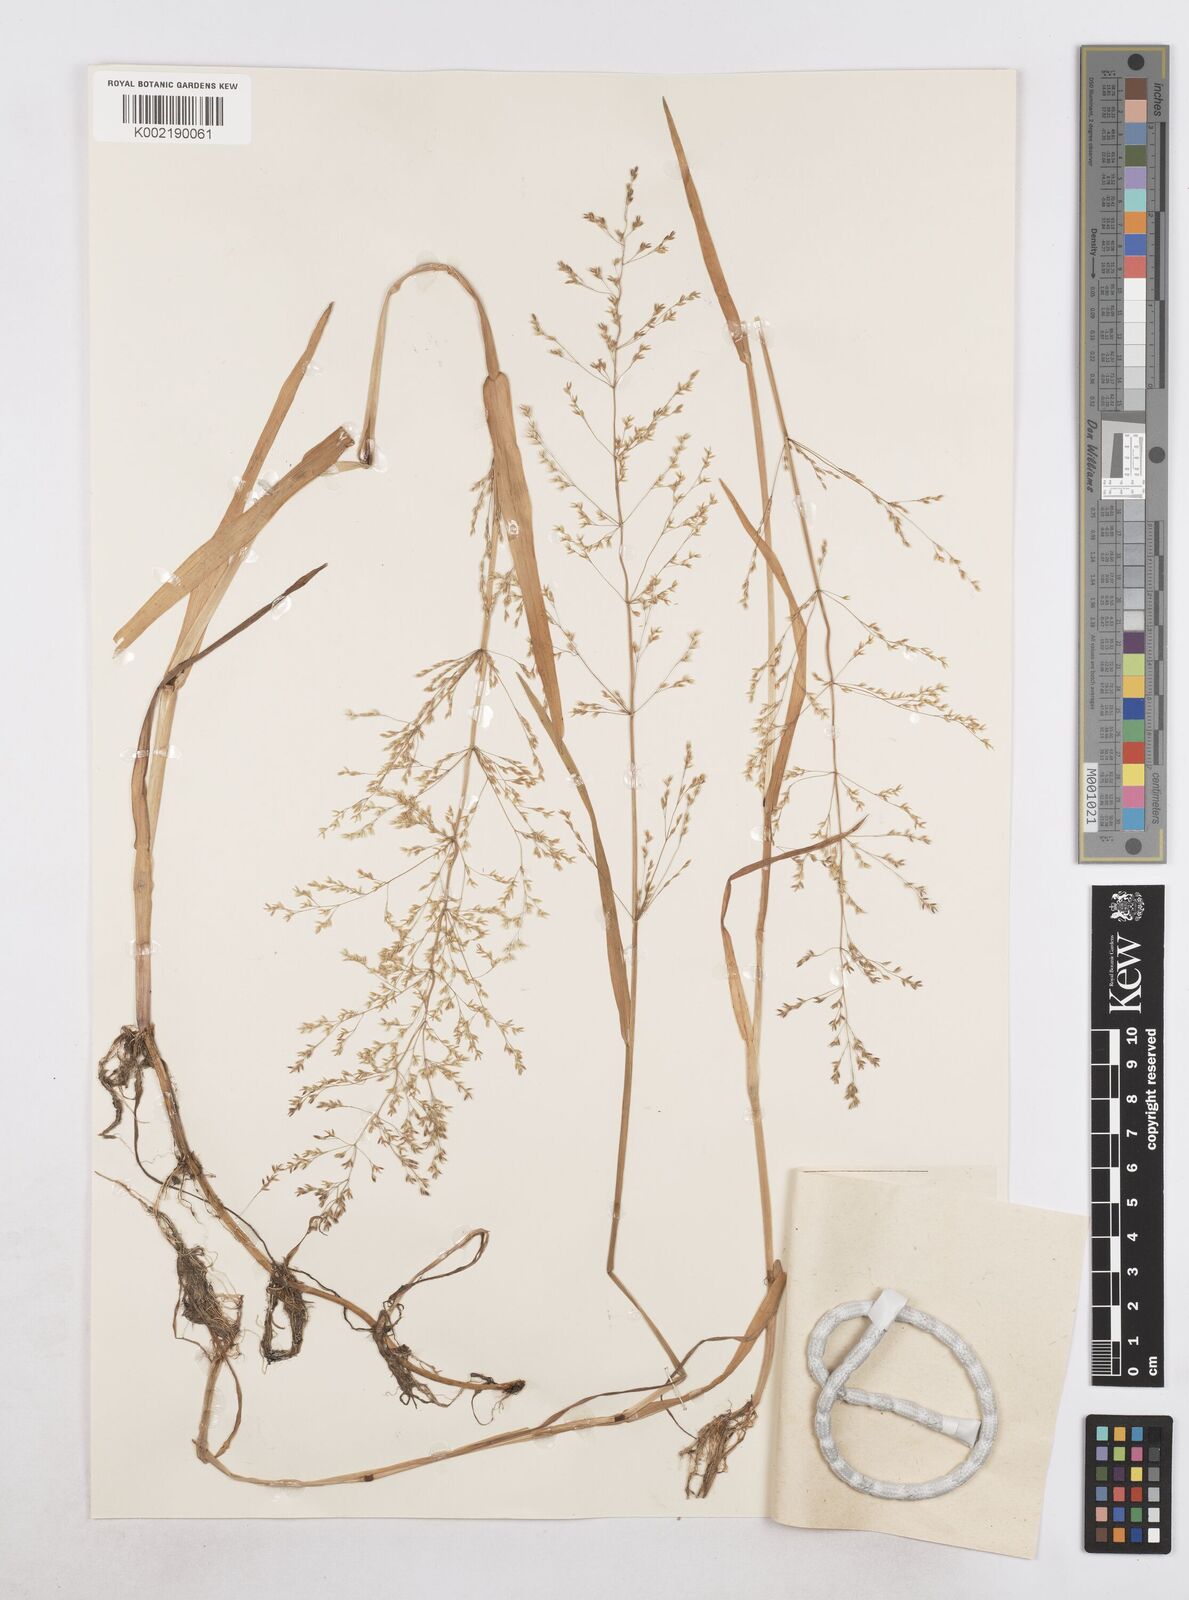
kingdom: Plantae
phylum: Tracheophyta
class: Liliopsida
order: Poales
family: Poaceae
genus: Catabrosa
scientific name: Catabrosa aquatica
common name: Whorl-grass
